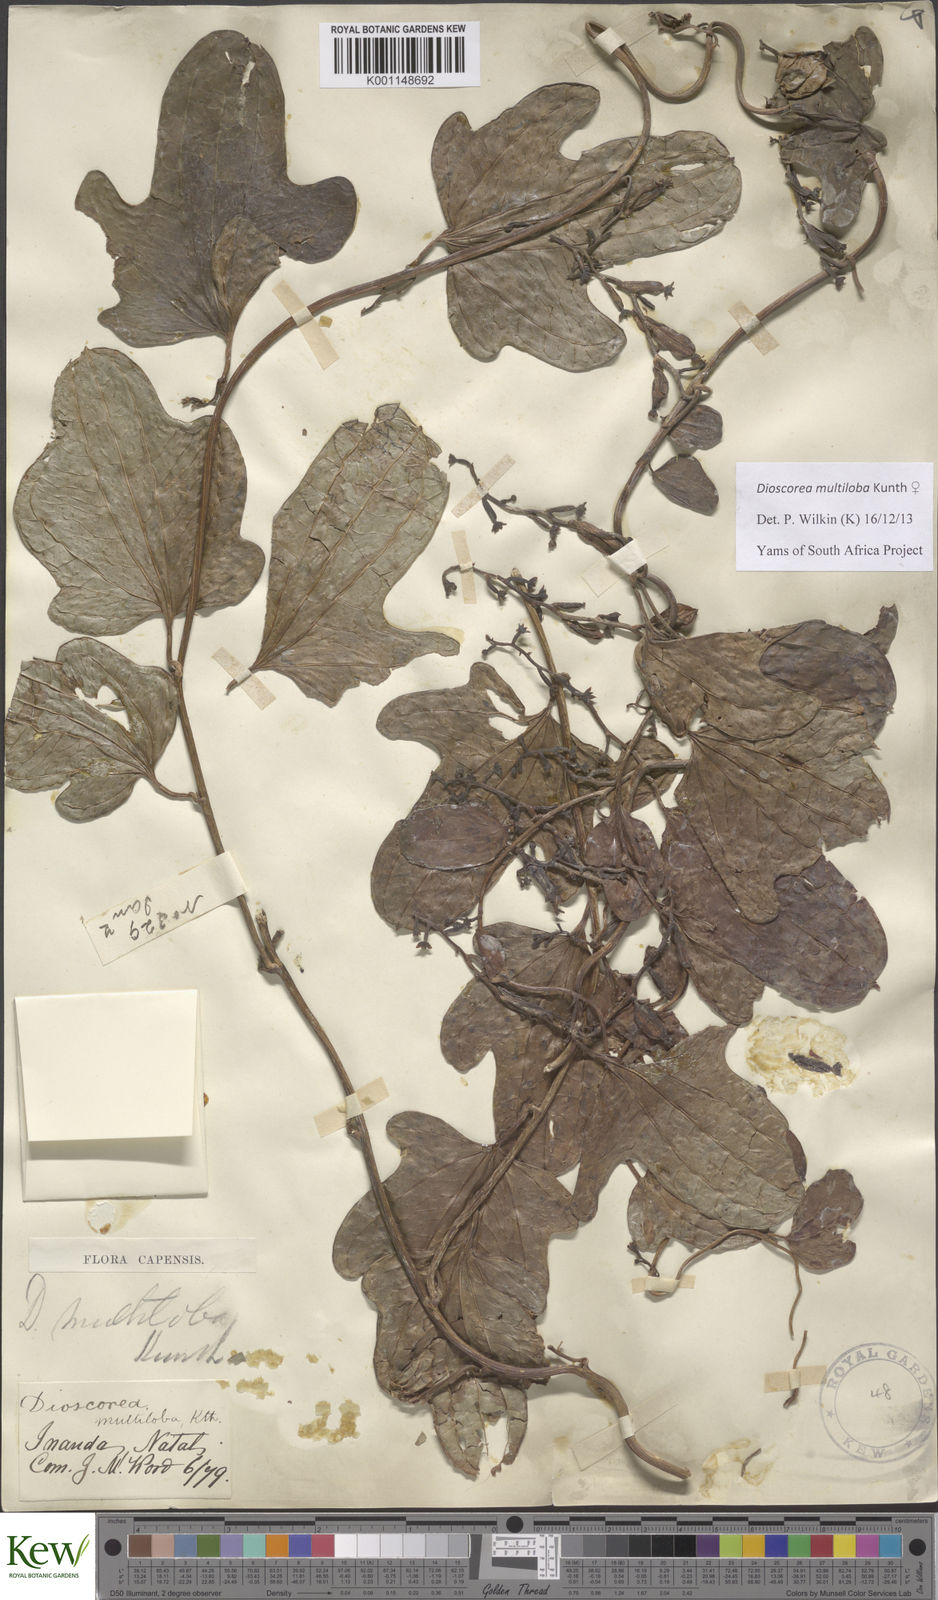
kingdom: Plantae
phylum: Tracheophyta
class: Liliopsida
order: Dioscoreales
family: Dioscoreaceae
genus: Dioscorea
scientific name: Dioscorea multiloba
